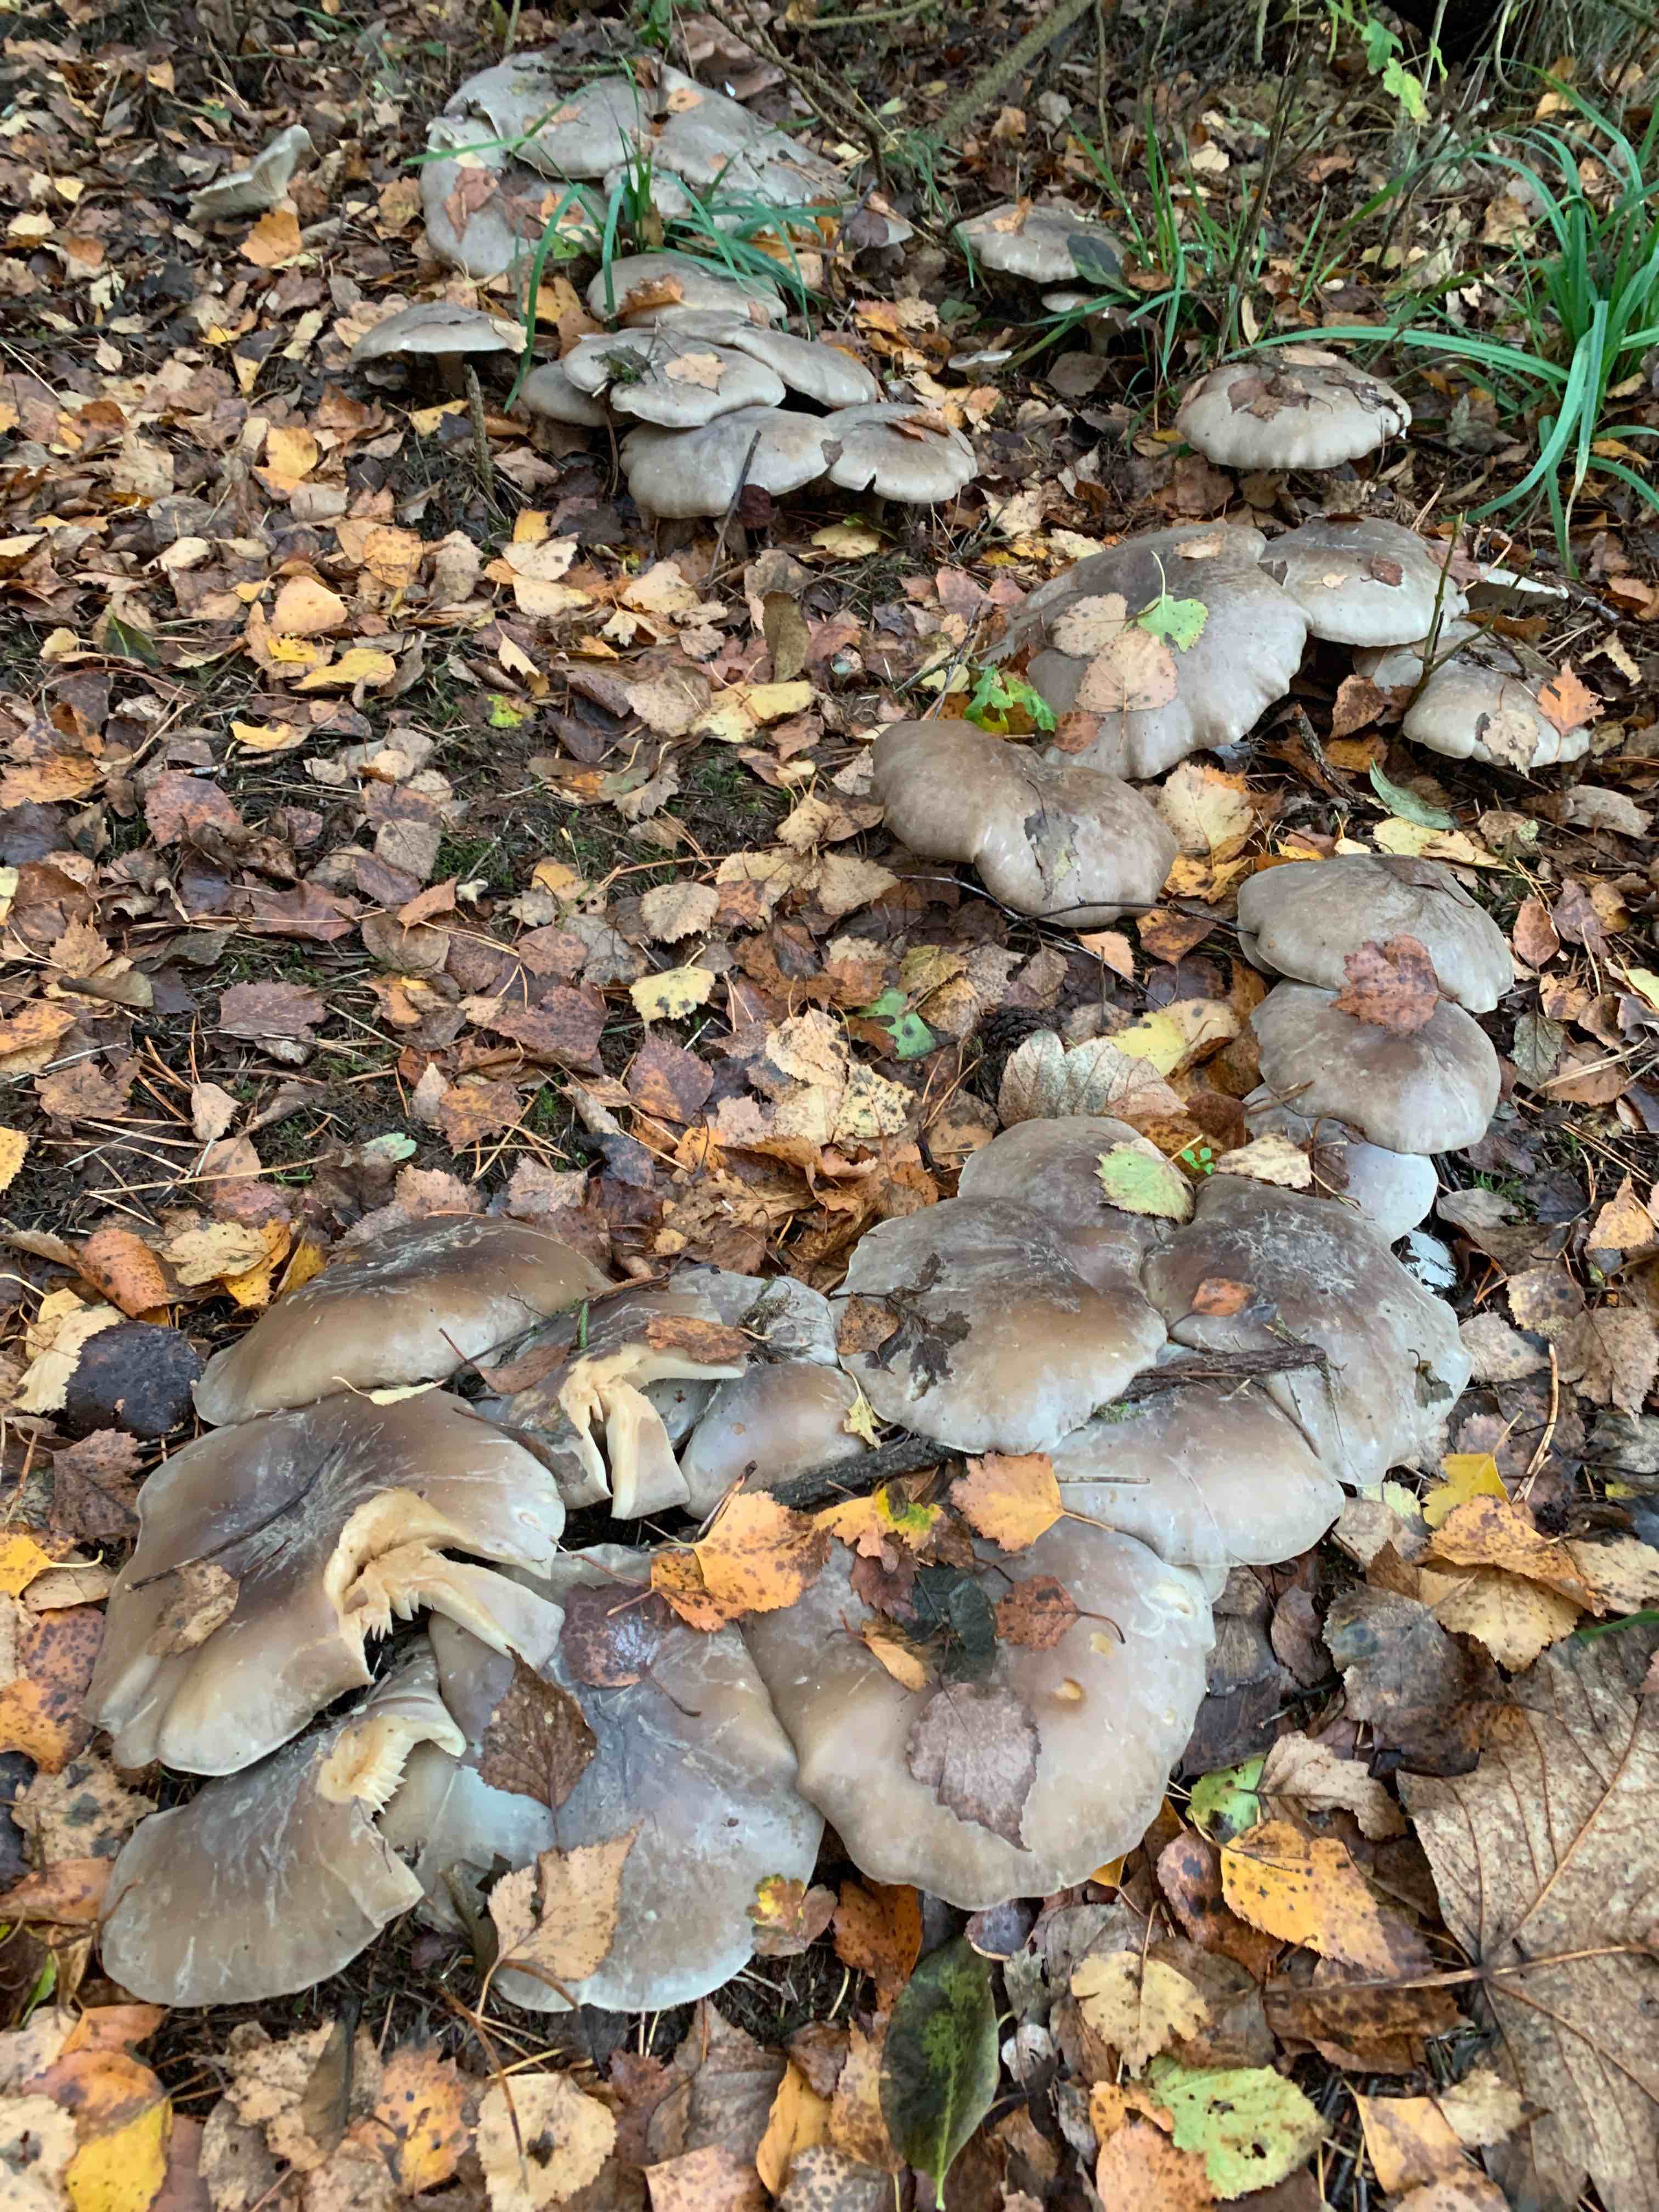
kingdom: Fungi
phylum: Basidiomycota
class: Agaricomycetes
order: Agaricales
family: Tricholomataceae
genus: Clitocybe
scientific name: Clitocybe nebularis
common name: tåge-tragthat
